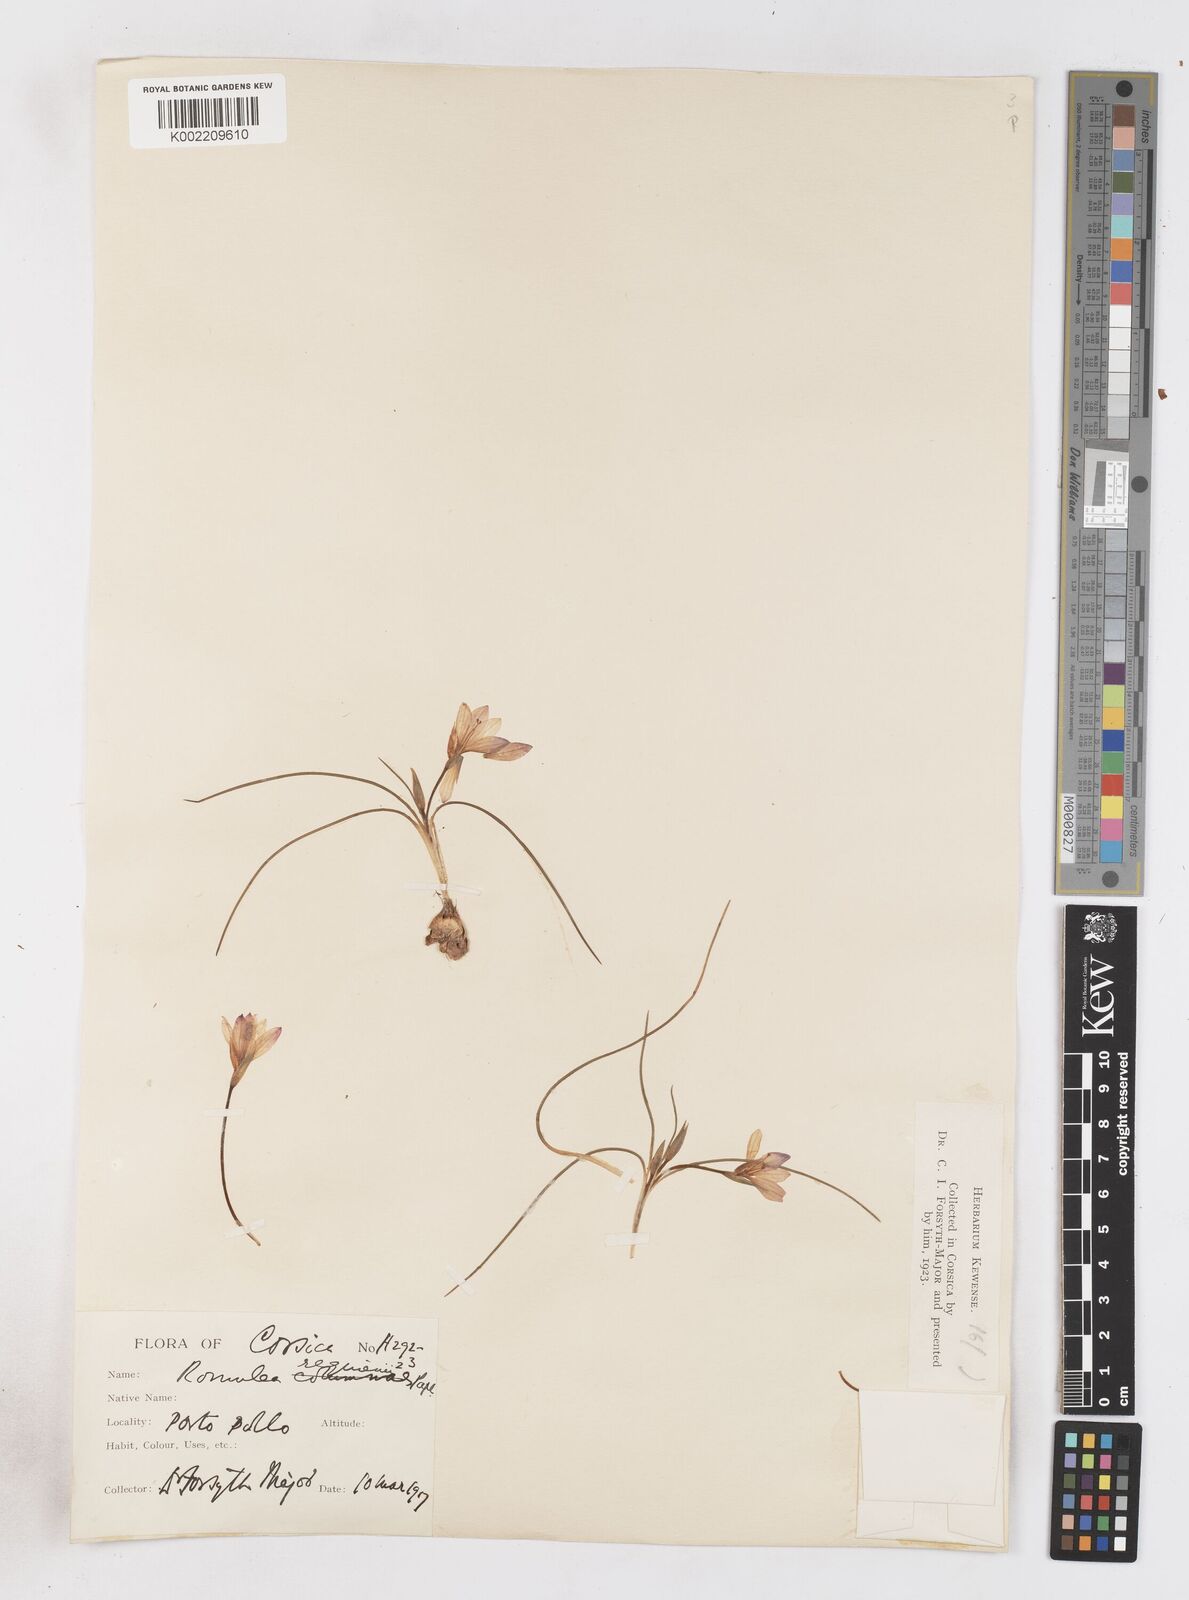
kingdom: Plantae
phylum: Tracheophyta
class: Liliopsida
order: Asparagales
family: Iridaceae
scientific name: Iridaceae
